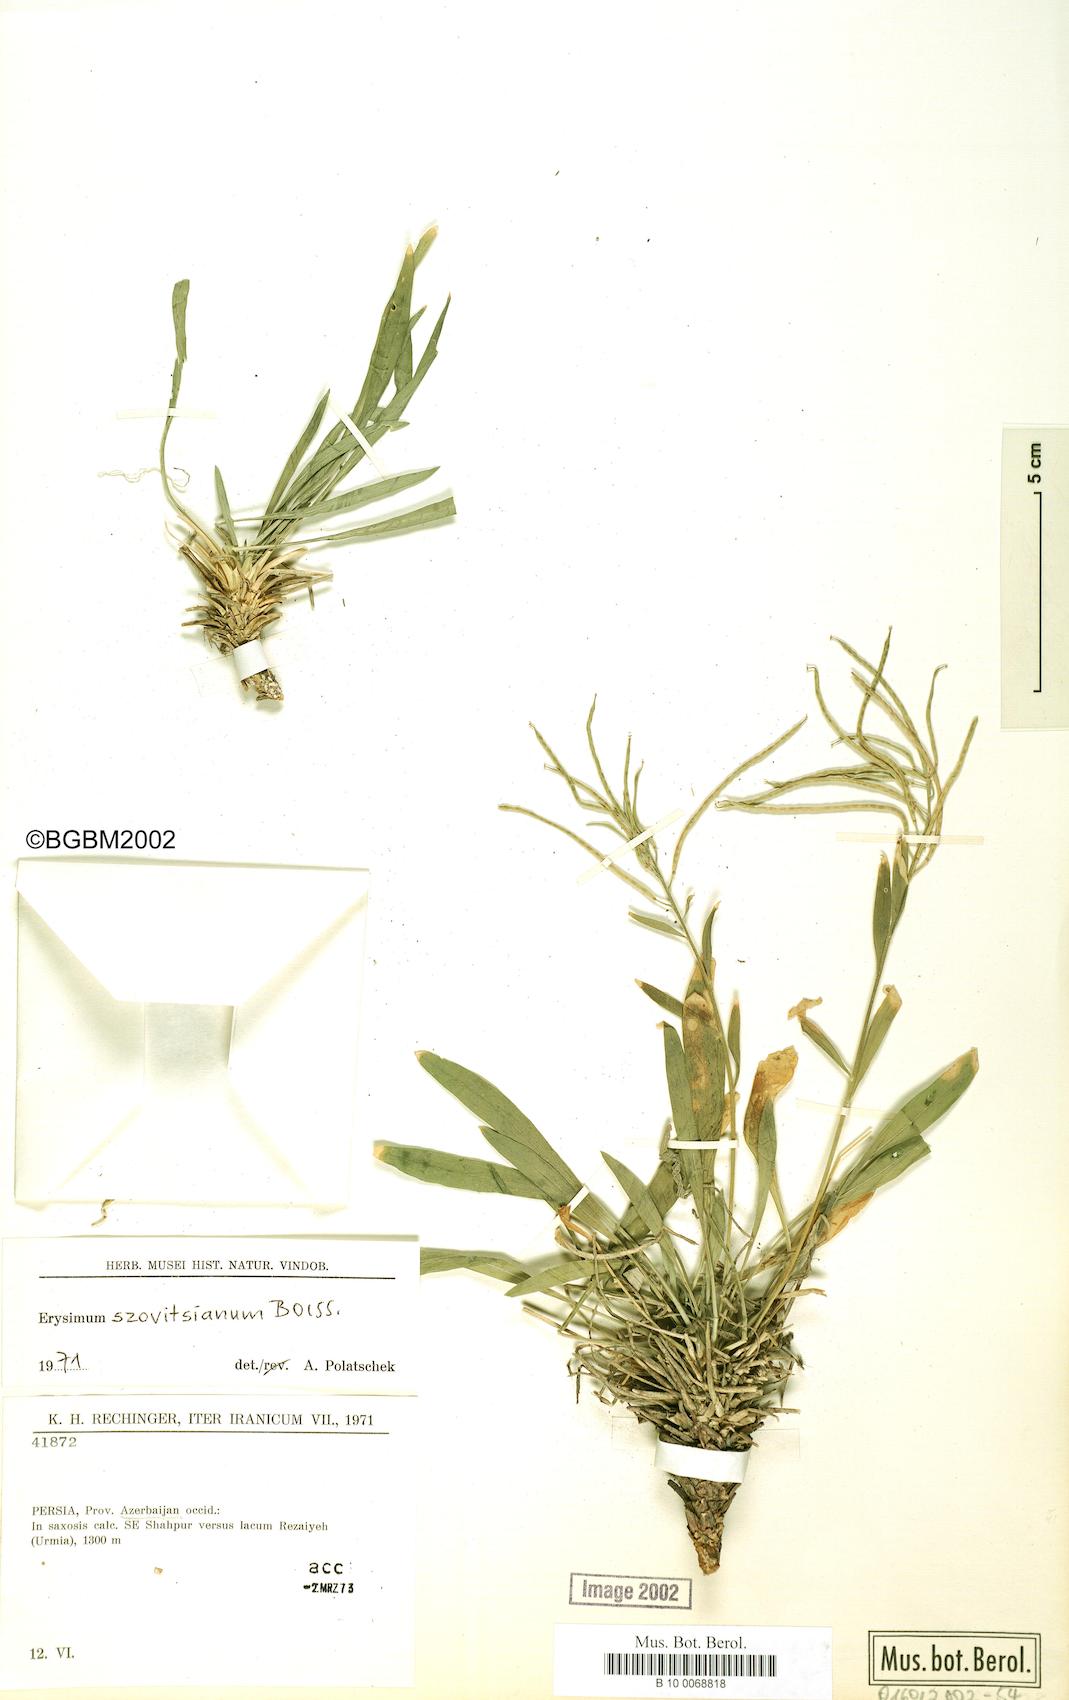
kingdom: Plantae
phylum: Tracheophyta
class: Magnoliopsida
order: Brassicales
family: Brassicaceae
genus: Erysimum
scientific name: Erysimum szowitsianum
